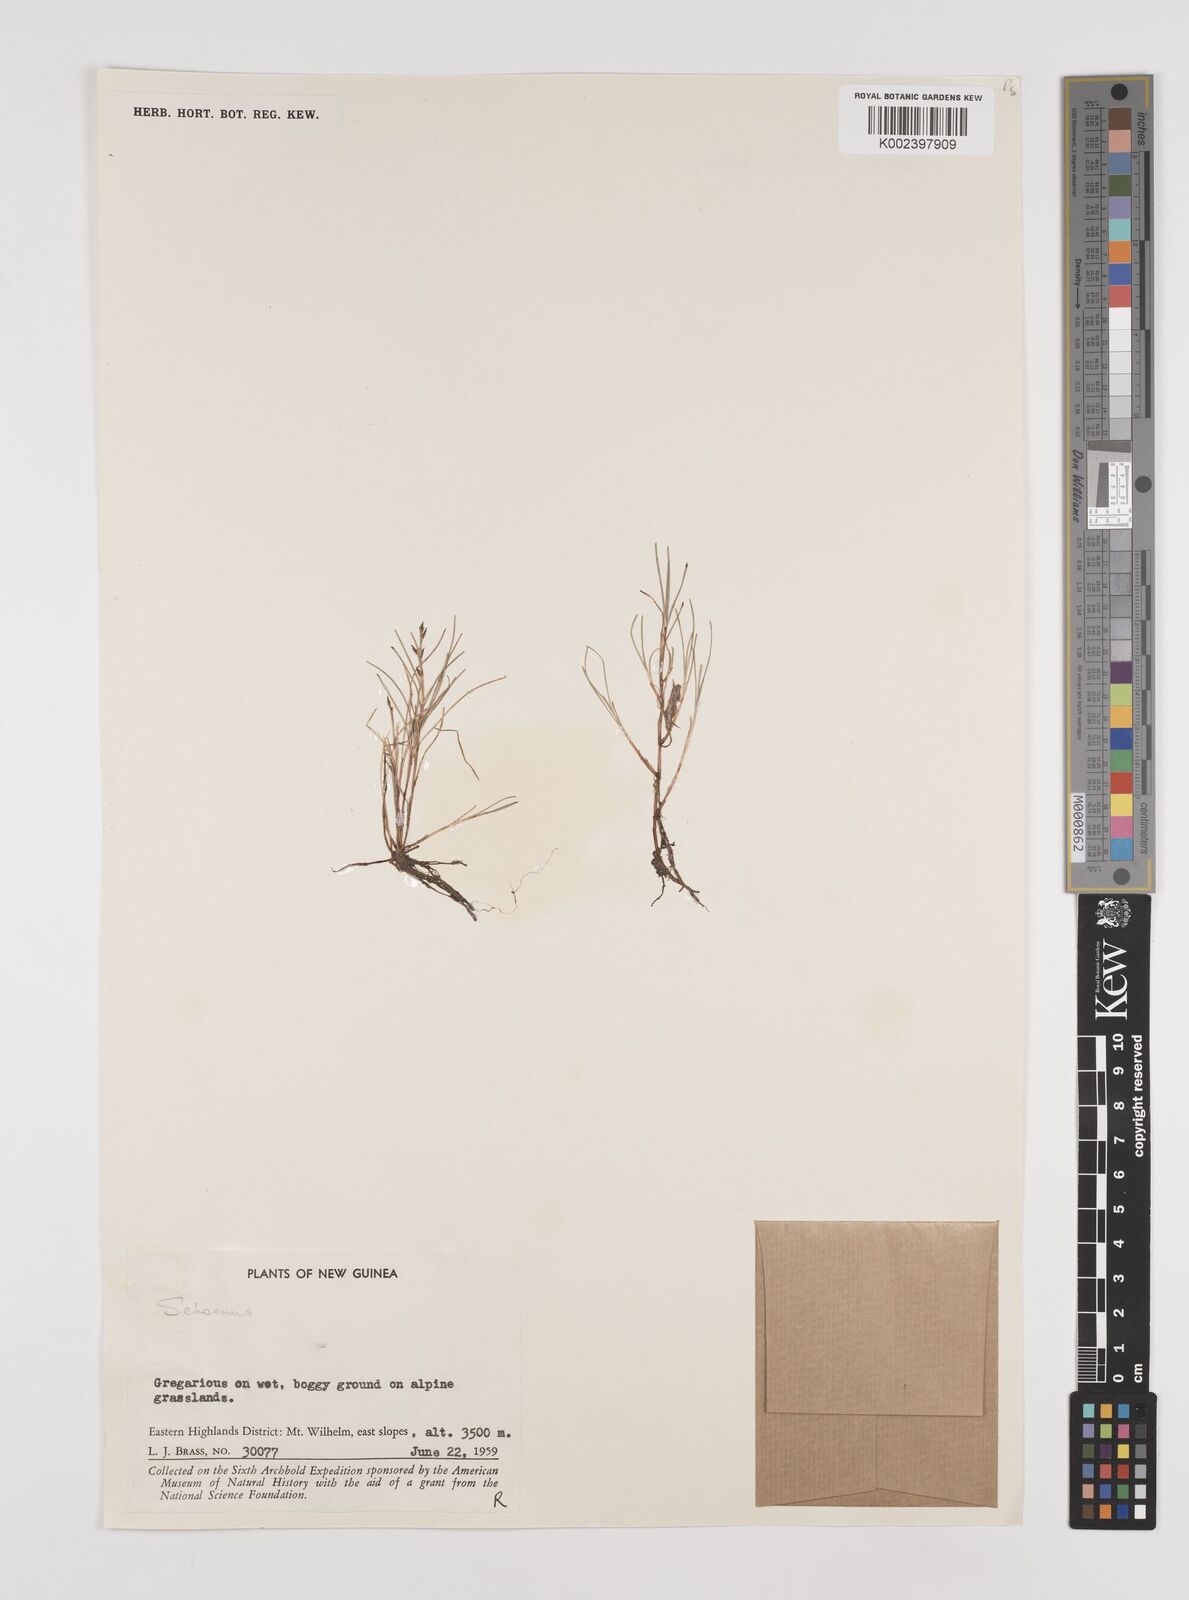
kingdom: Plantae
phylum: Tracheophyta
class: Liliopsida
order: Poales
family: Cyperaceae
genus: Schoenus
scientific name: Schoenus maschalinus
